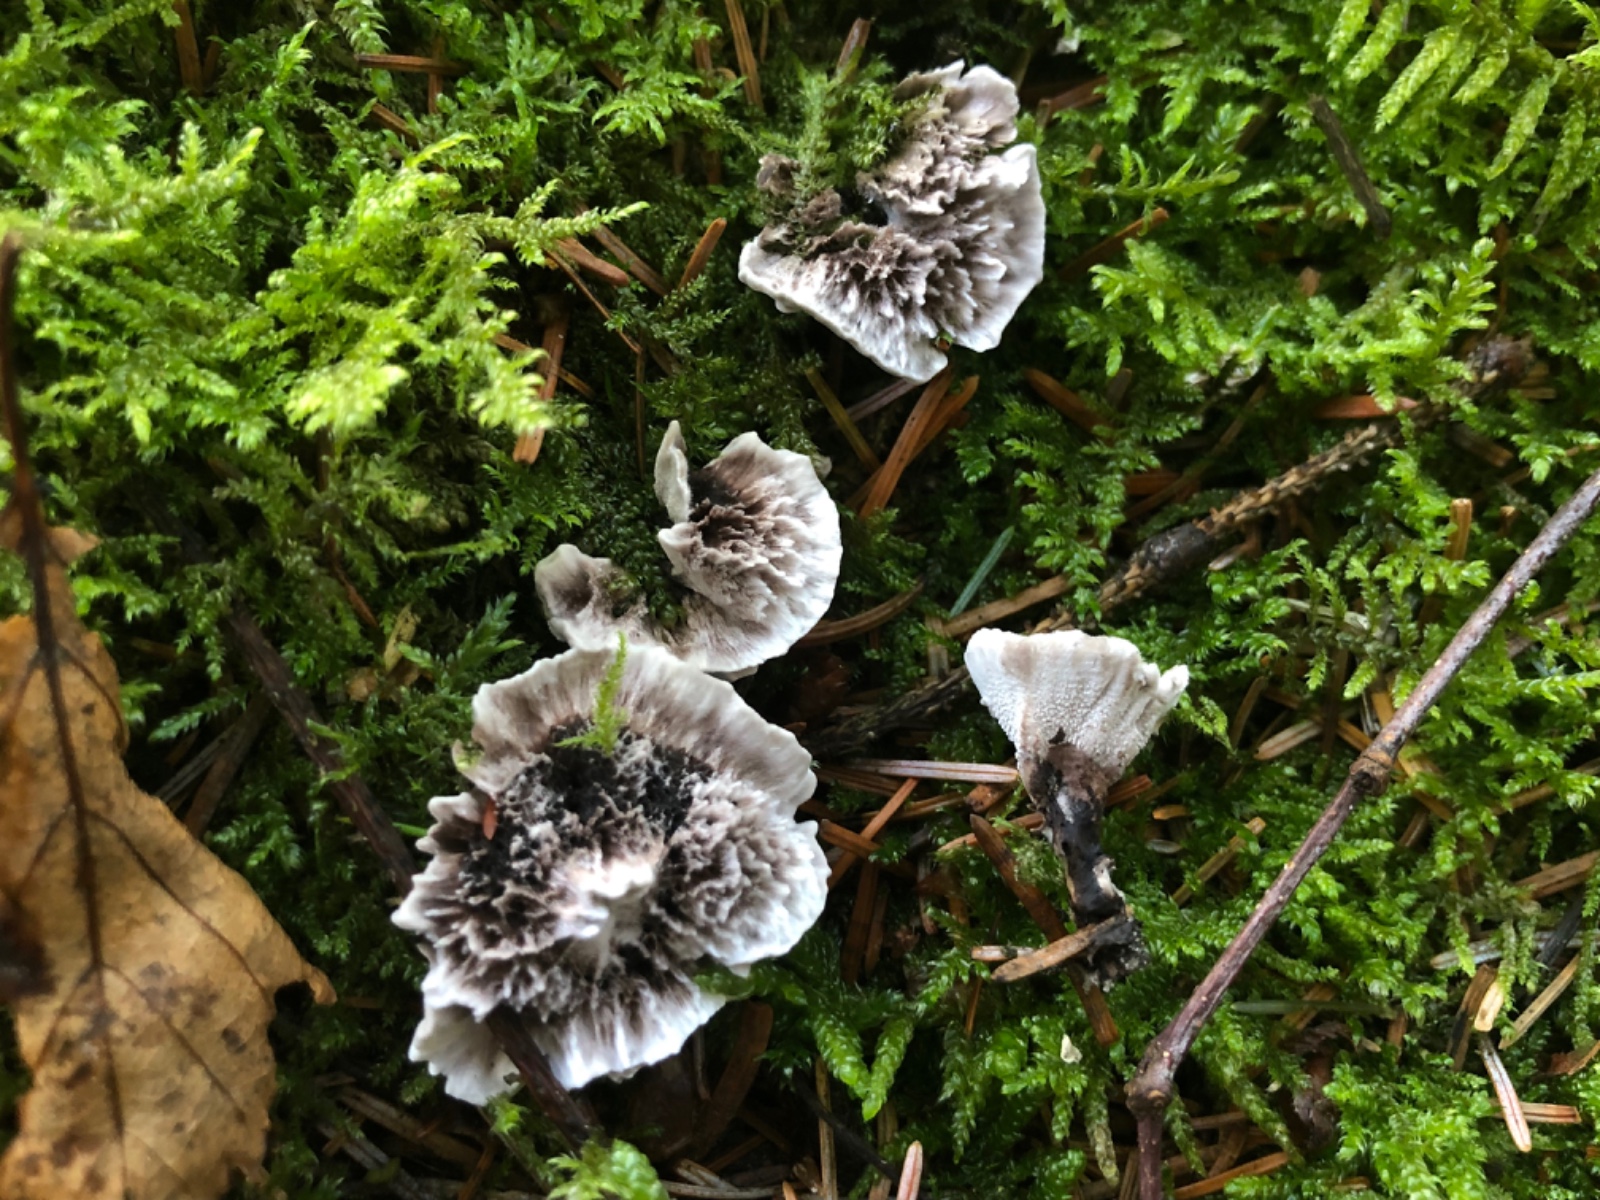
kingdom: Fungi
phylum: Basidiomycota
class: Agaricomycetes
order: Thelephorales
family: Thelephoraceae
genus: Phellodon
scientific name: Phellodon tomentosus
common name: vellugtende duftpigsvamp
